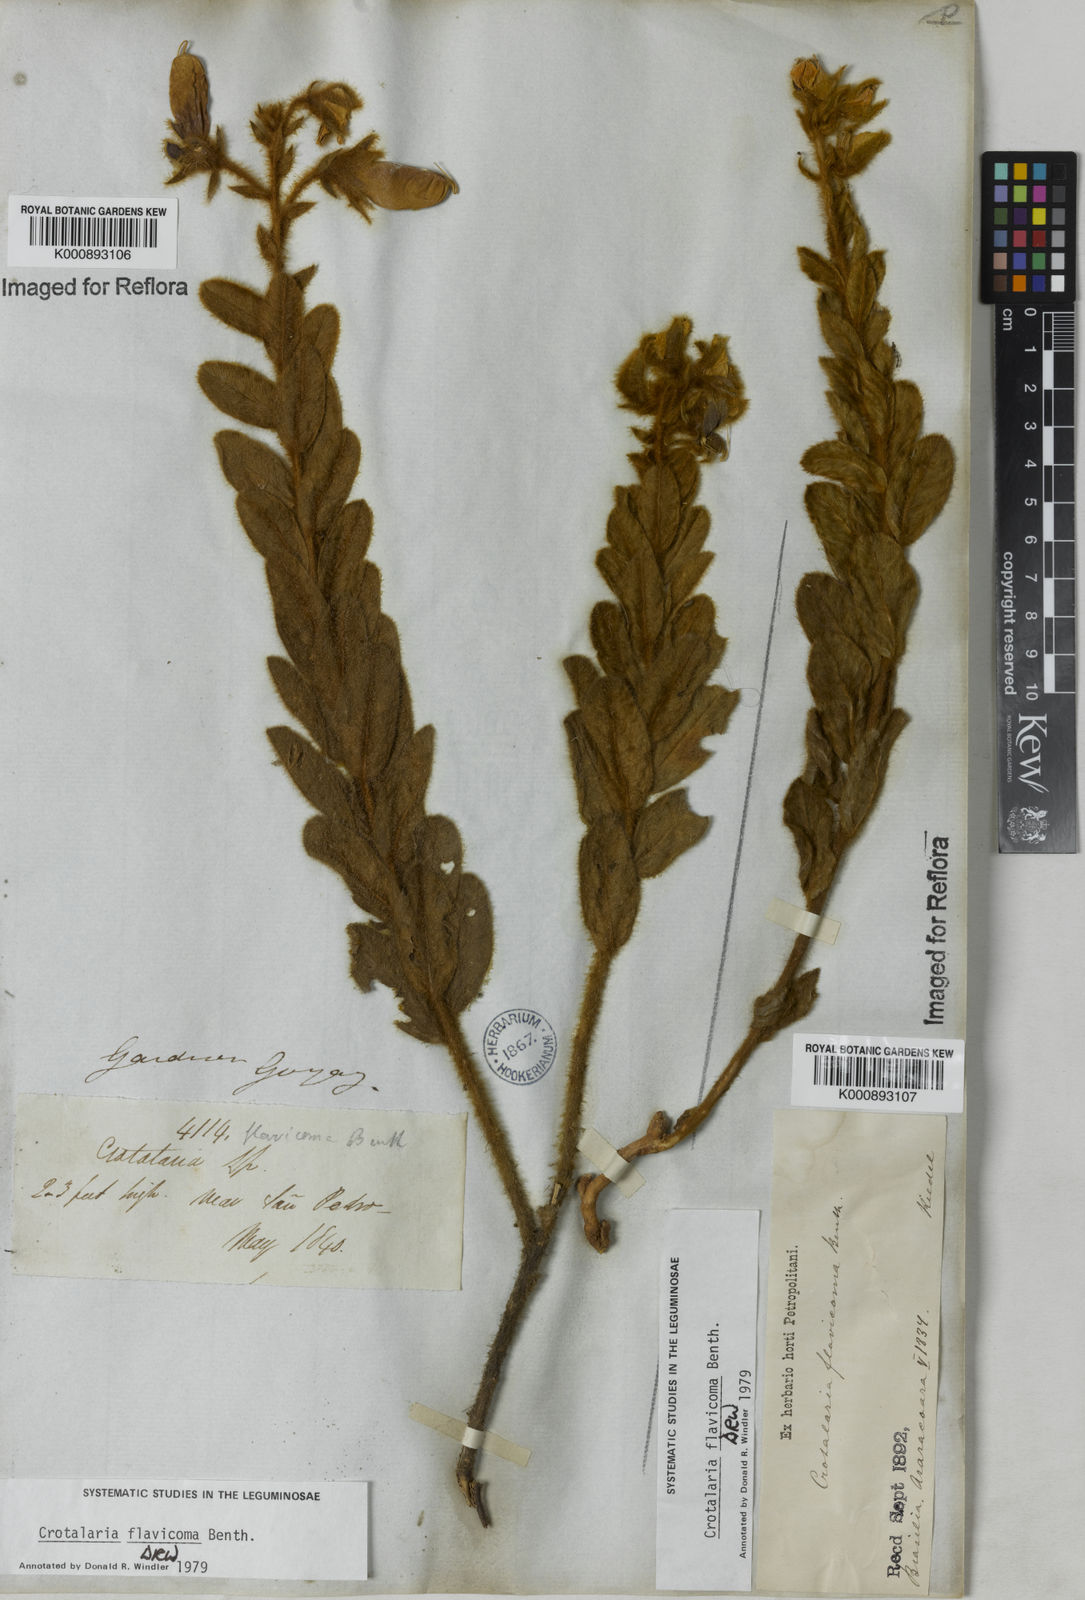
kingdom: Plantae
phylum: Tracheophyta
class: Magnoliopsida
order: Fabales
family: Fabaceae
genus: Crotalaria
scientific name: Crotalaria flavicoma
